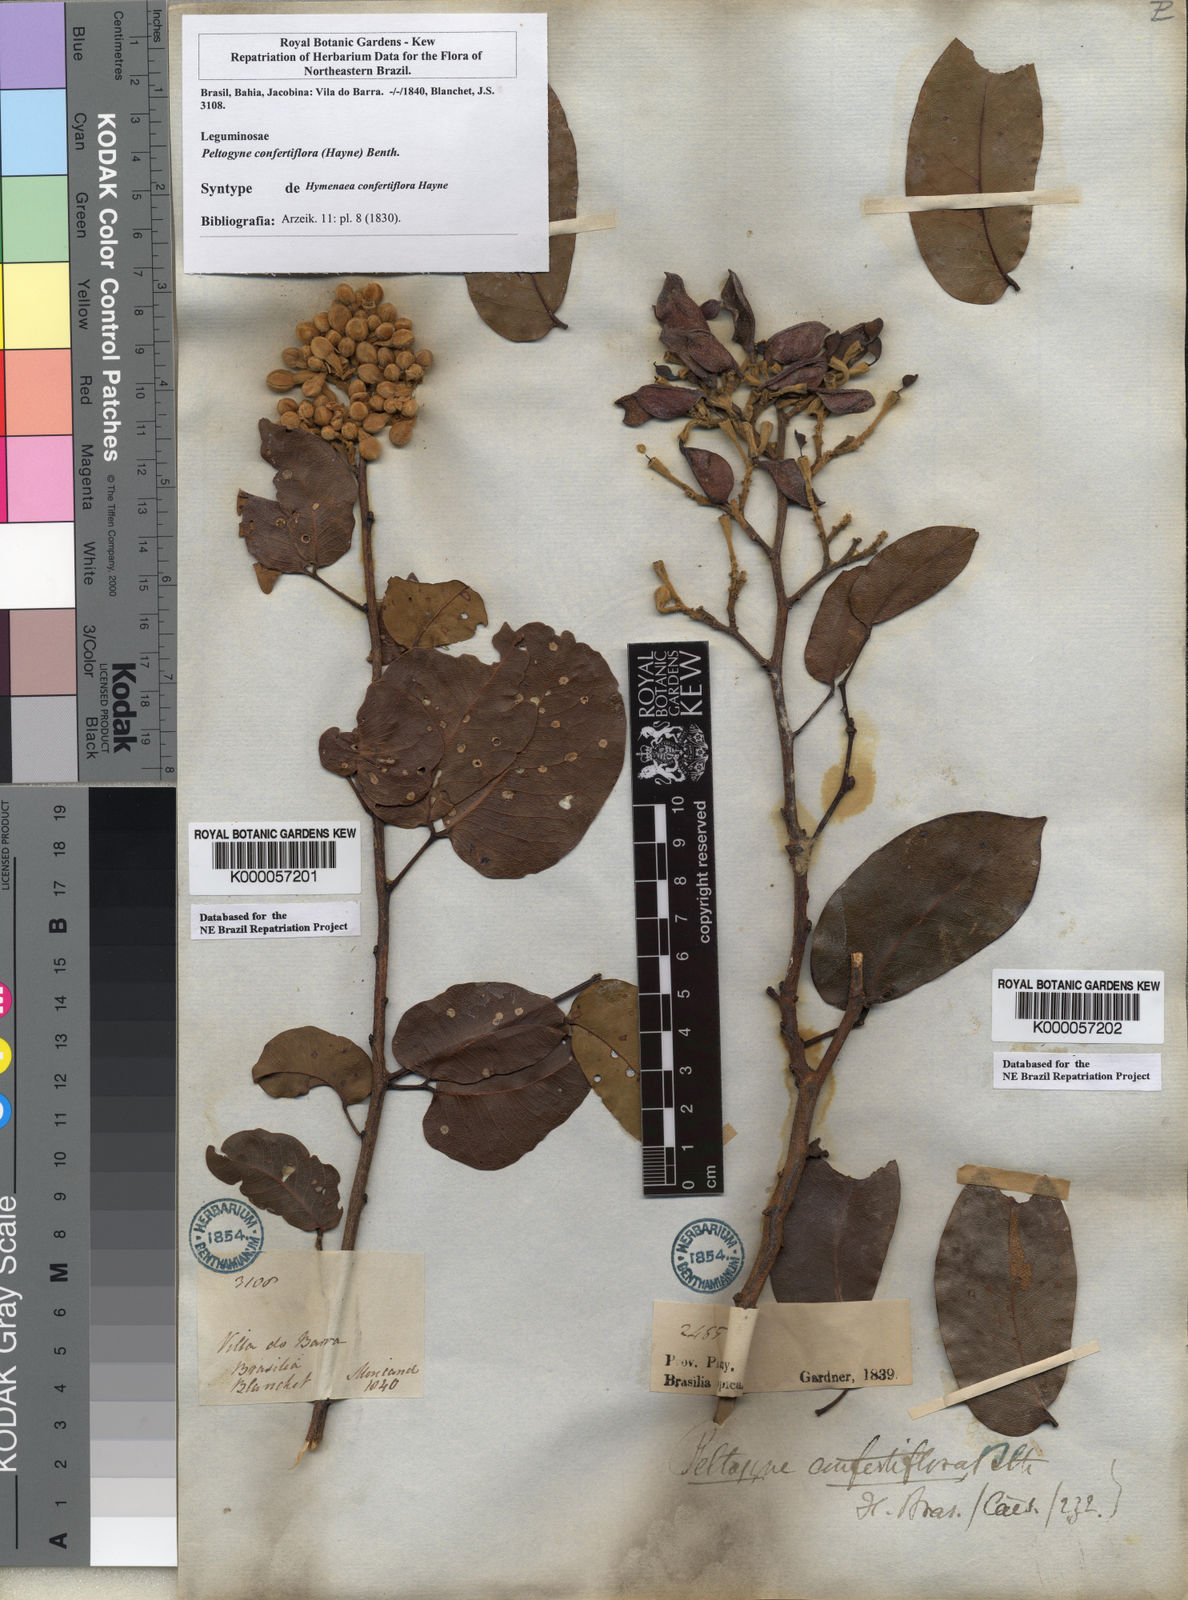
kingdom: Plantae
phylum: Tracheophyta
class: Magnoliopsida
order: Fabales
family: Fabaceae
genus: Peltogyne
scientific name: Peltogyne confertiflora
